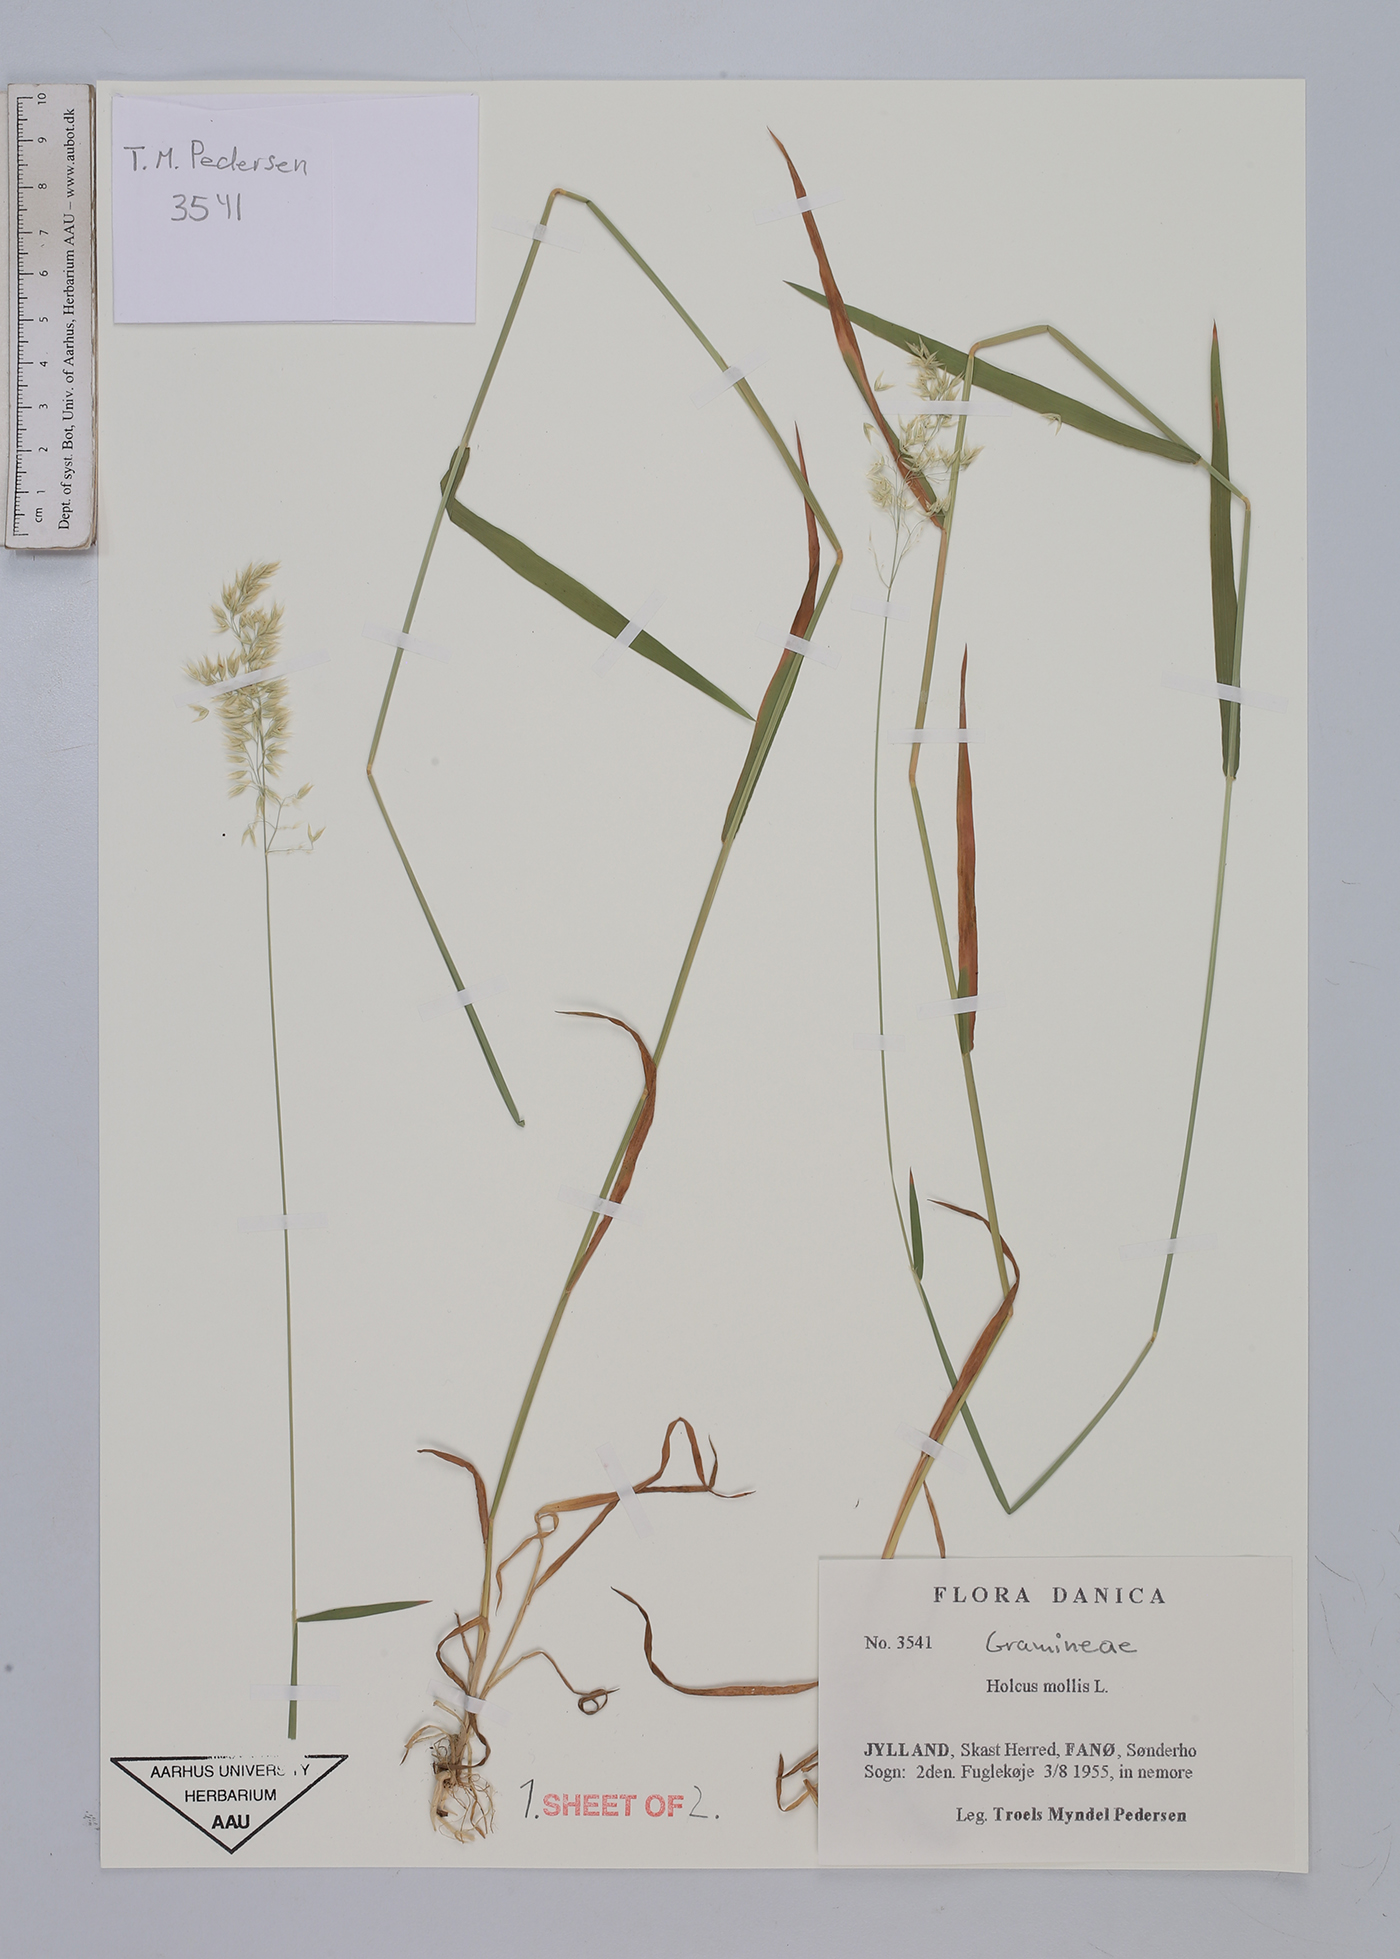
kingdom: Plantae
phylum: Tracheophyta
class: Liliopsida
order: Poales
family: Poaceae
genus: Holcus
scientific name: Holcus mollis
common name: Creeping velvetgrass
